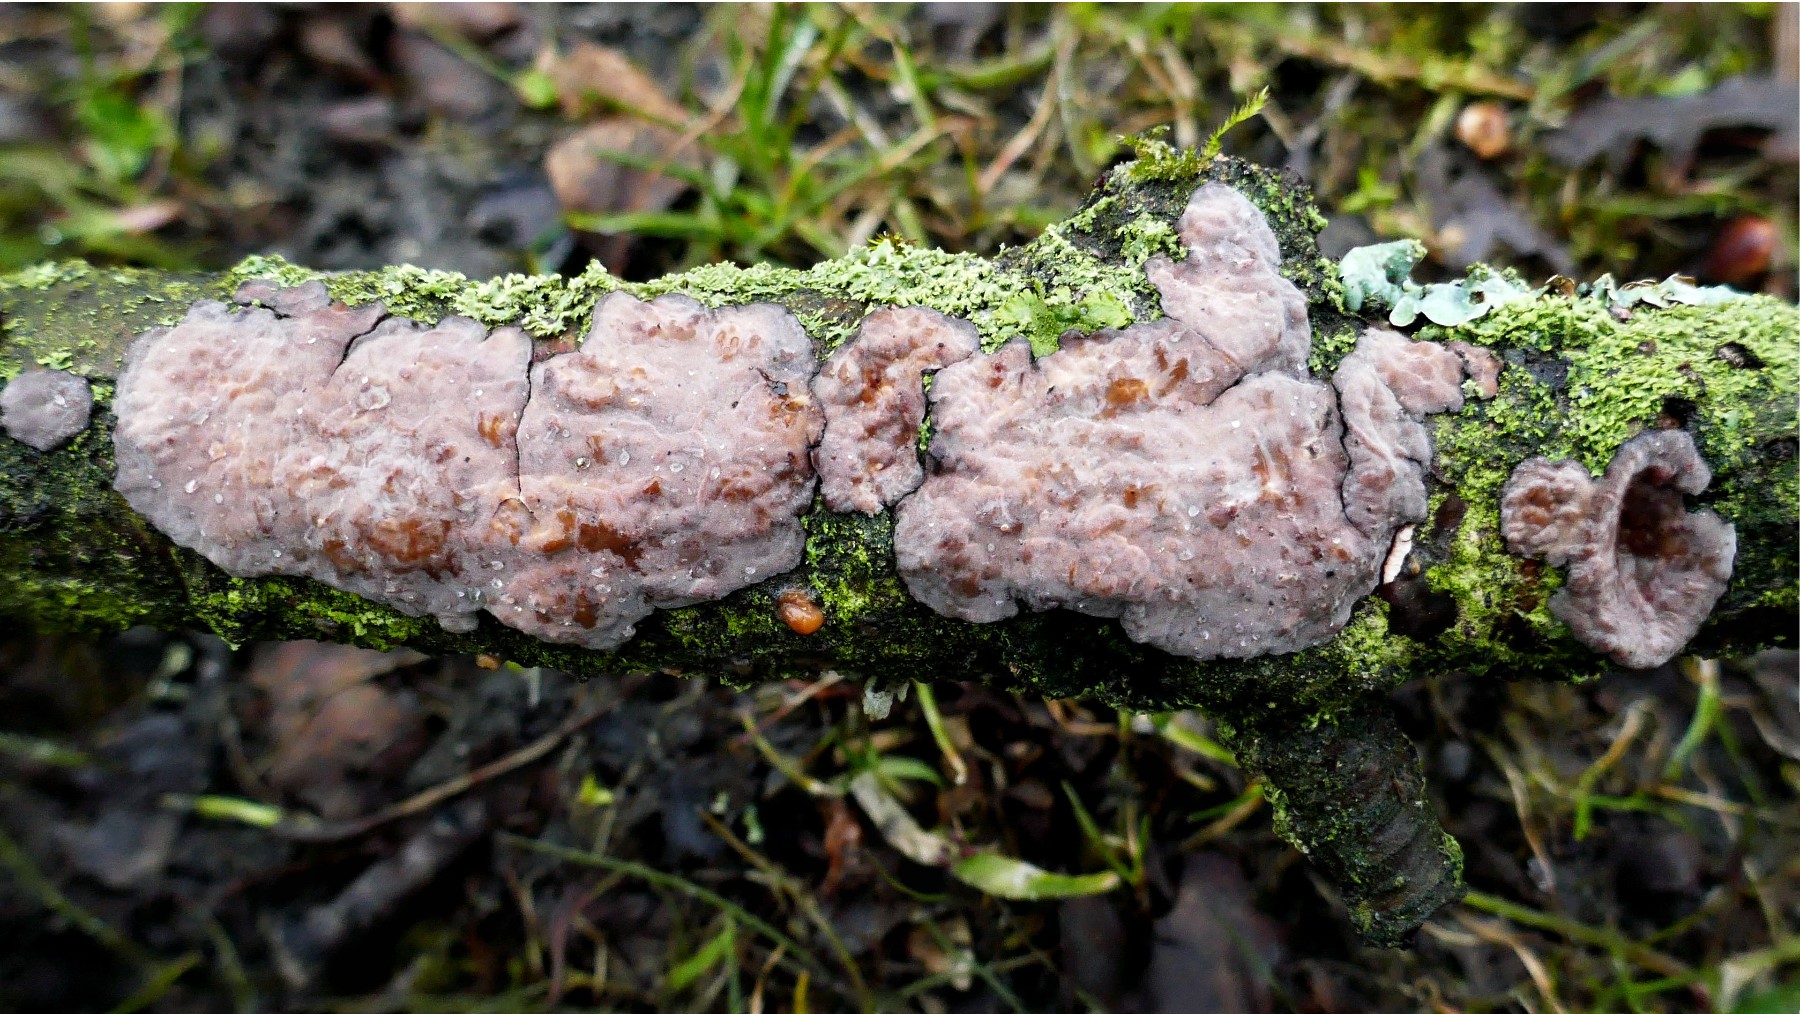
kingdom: Fungi
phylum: Basidiomycota
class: Agaricomycetes
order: Russulales
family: Peniophoraceae
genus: Peniophora
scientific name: Peniophora quercina
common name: ege-voksskind
